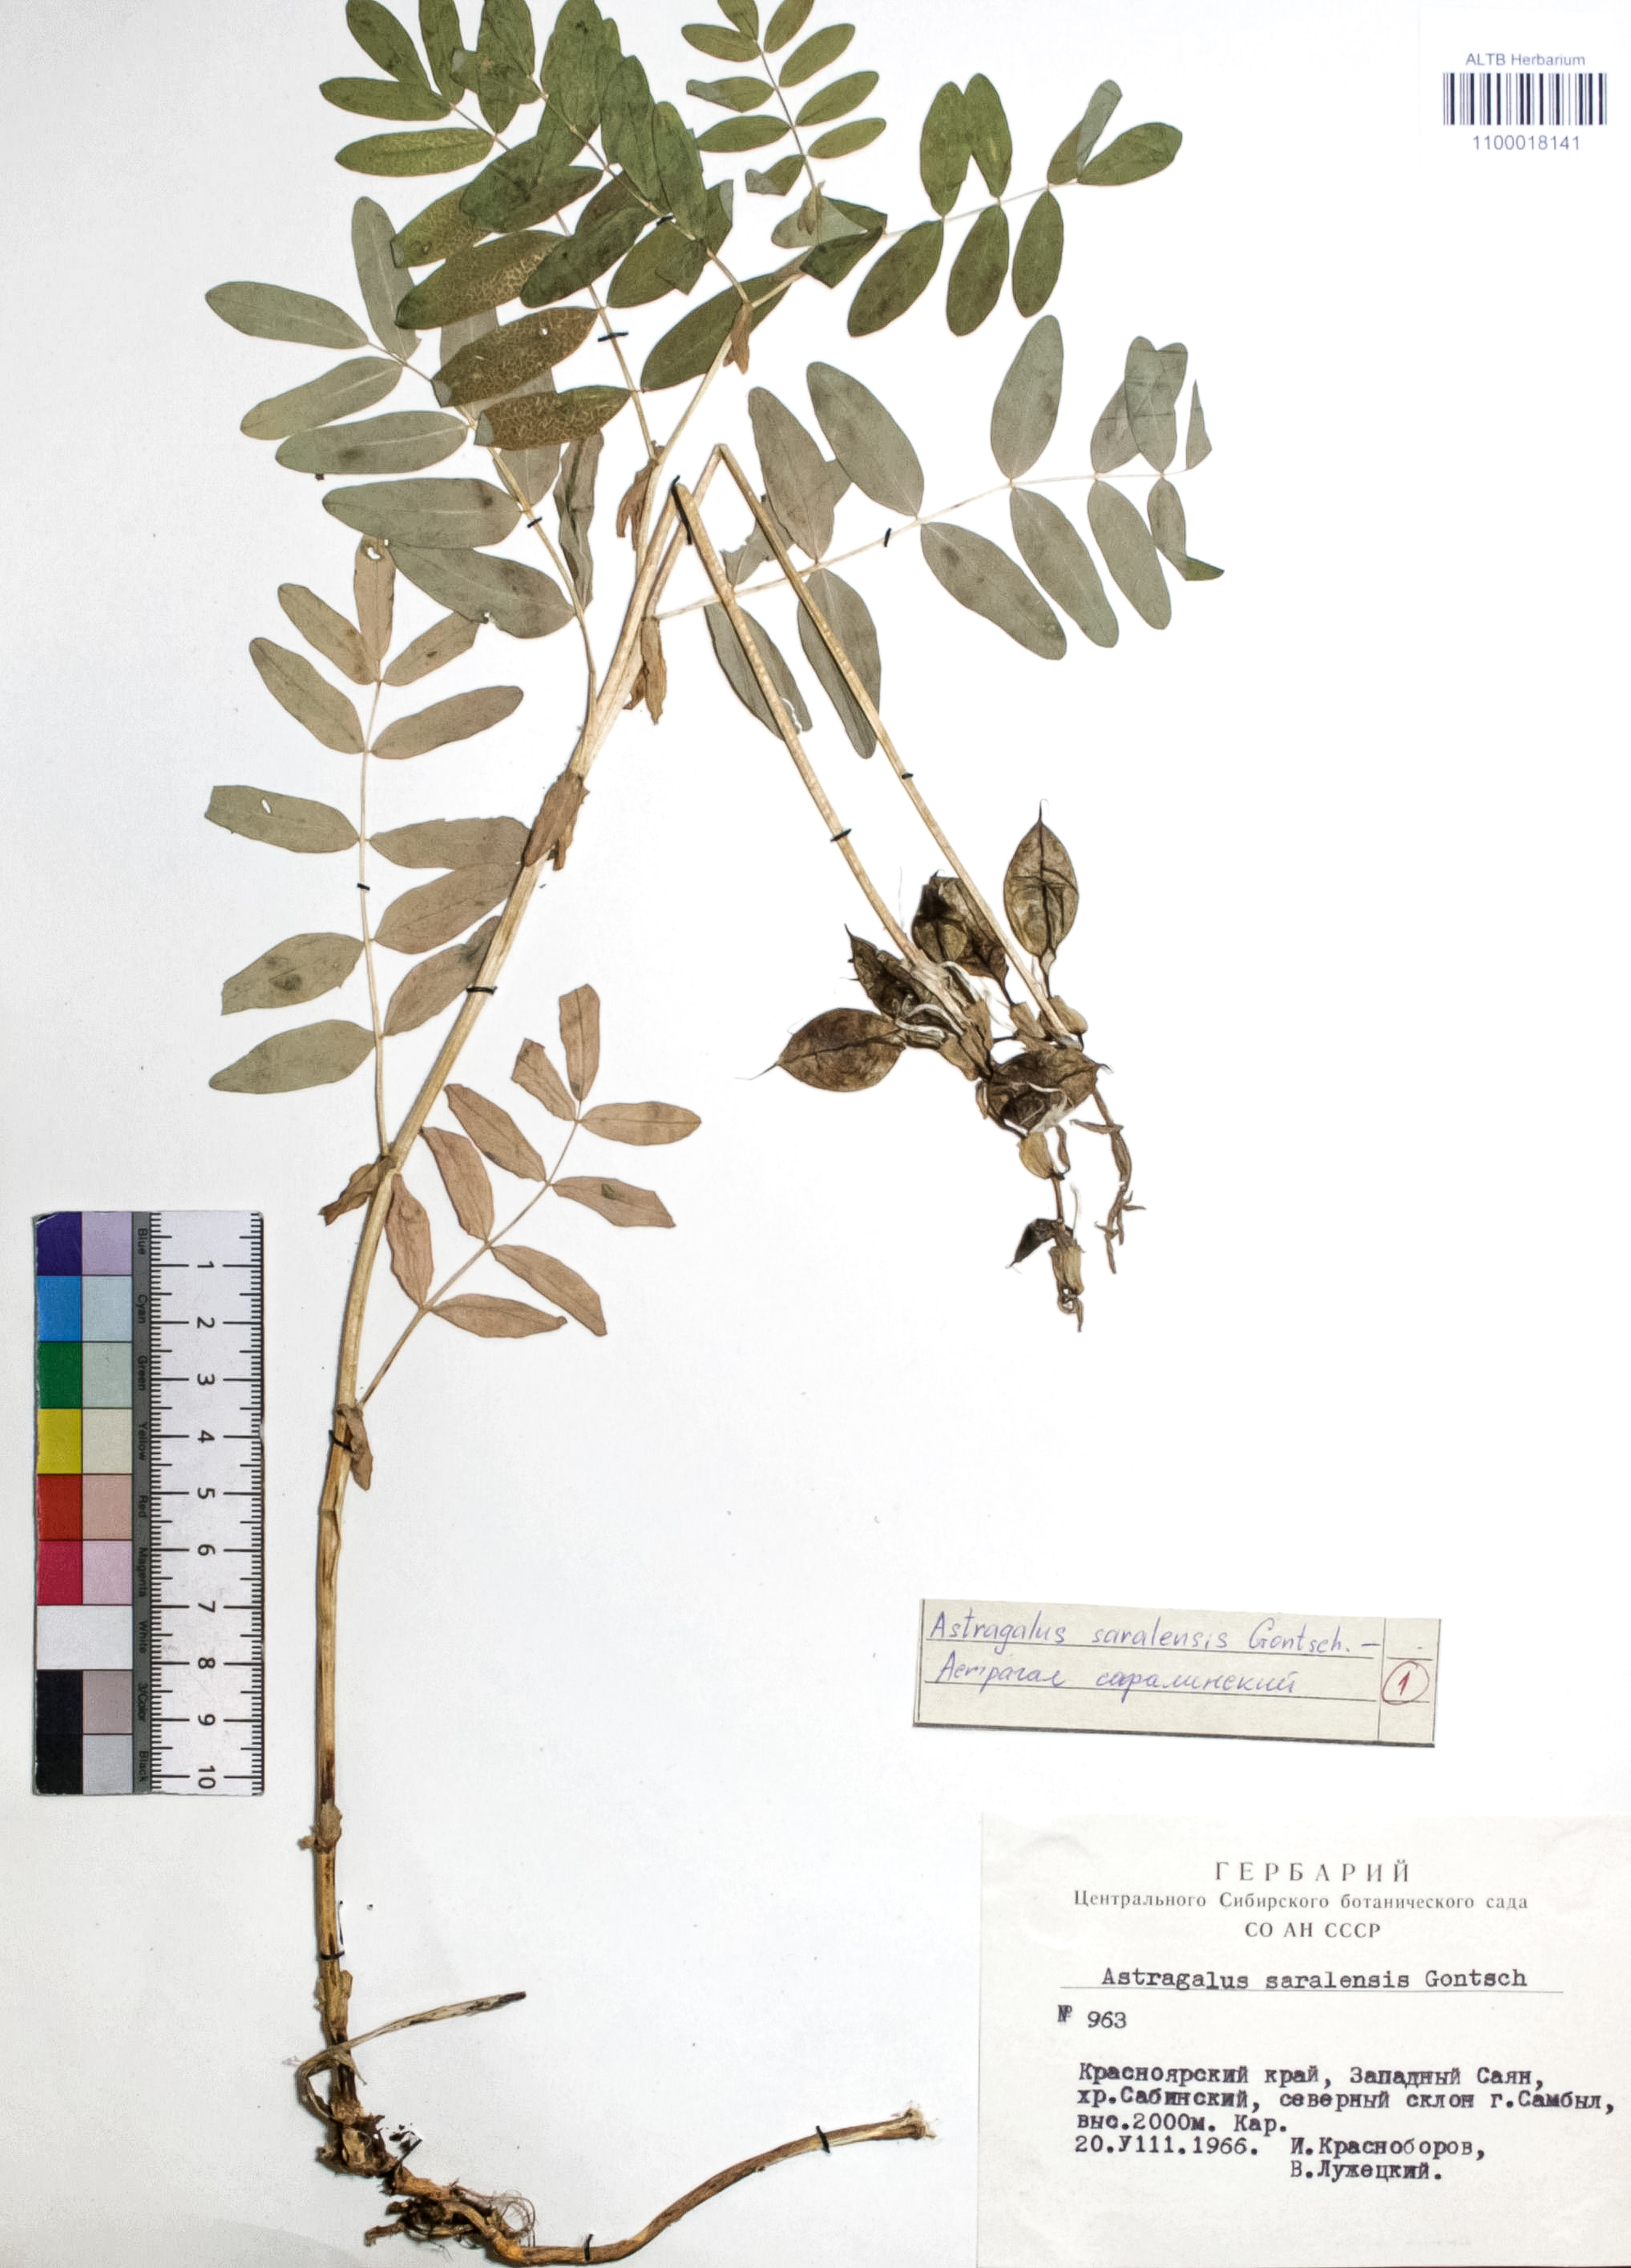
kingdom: Plantae
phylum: Tracheophyta
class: Magnoliopsida
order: Fabales
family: Fabaceae
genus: Astragalus
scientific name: Astragalus saralensis
